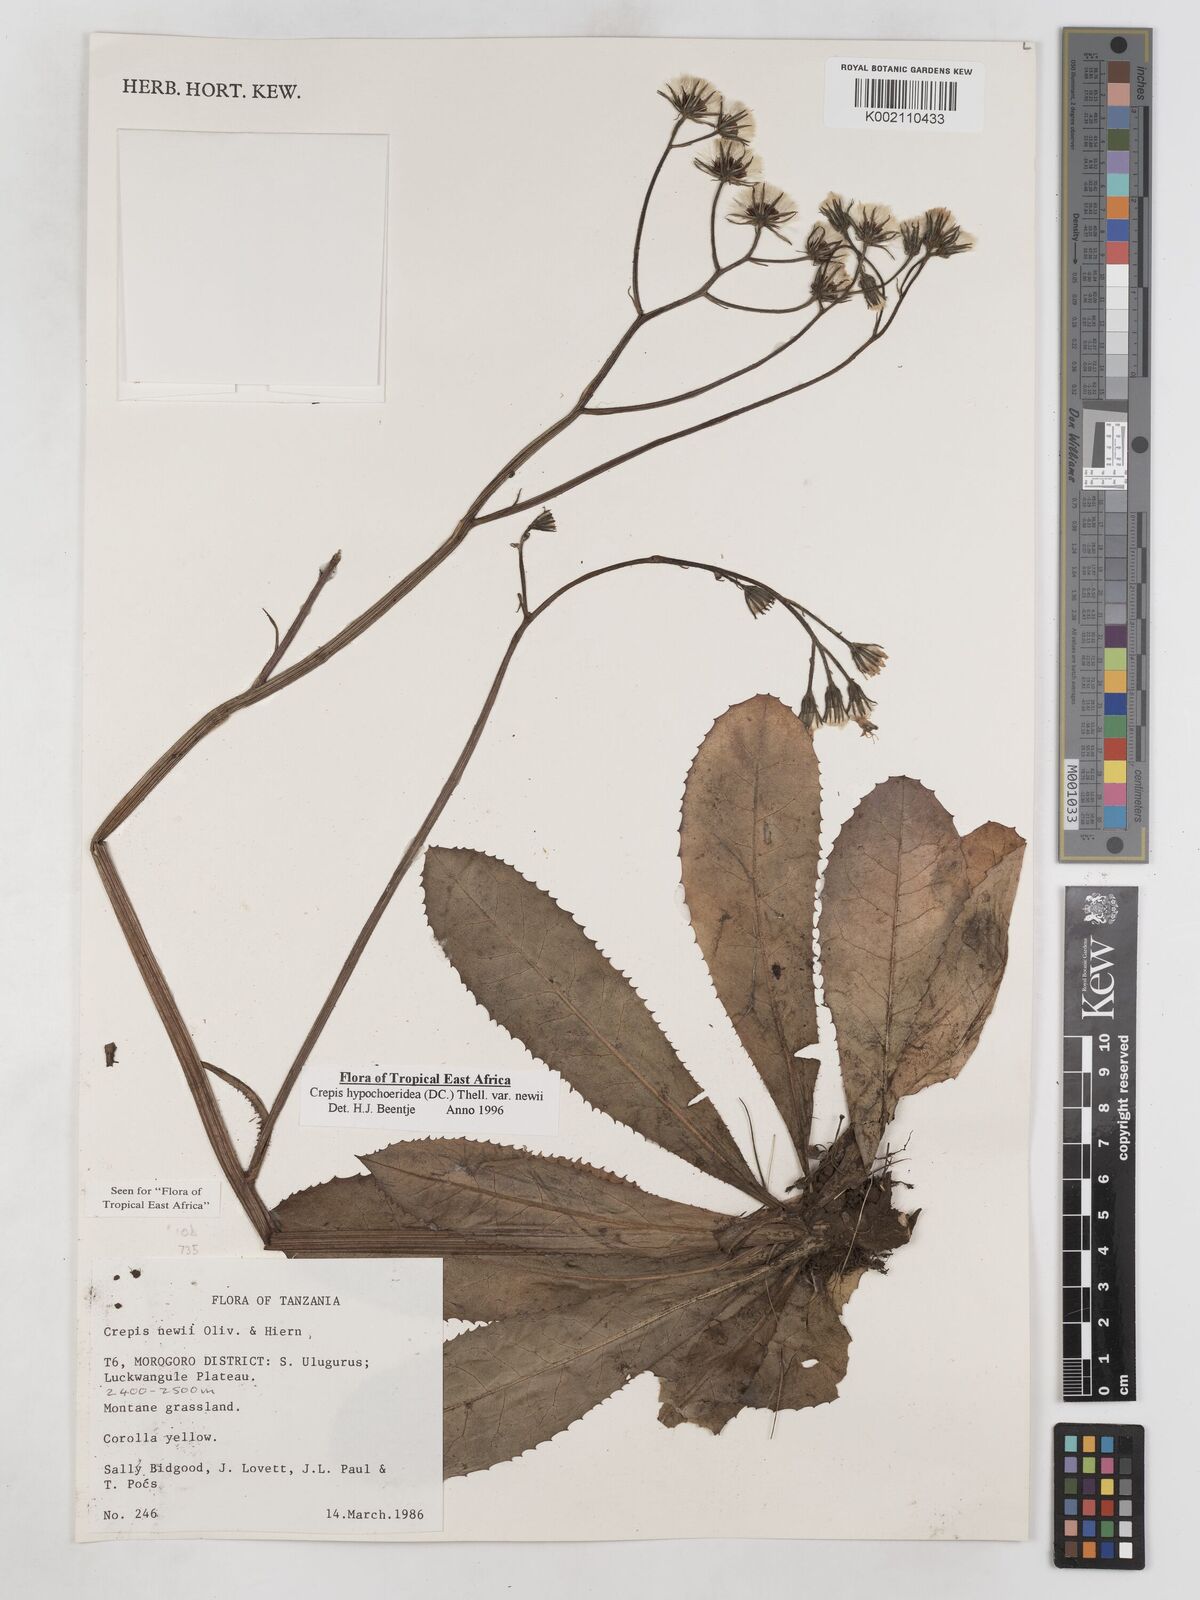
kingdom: Plantae
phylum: Tracheophyta
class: Magnoliopsida
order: Asterales
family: Asteraceae
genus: Crepis
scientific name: Crepis hypochoeridea
